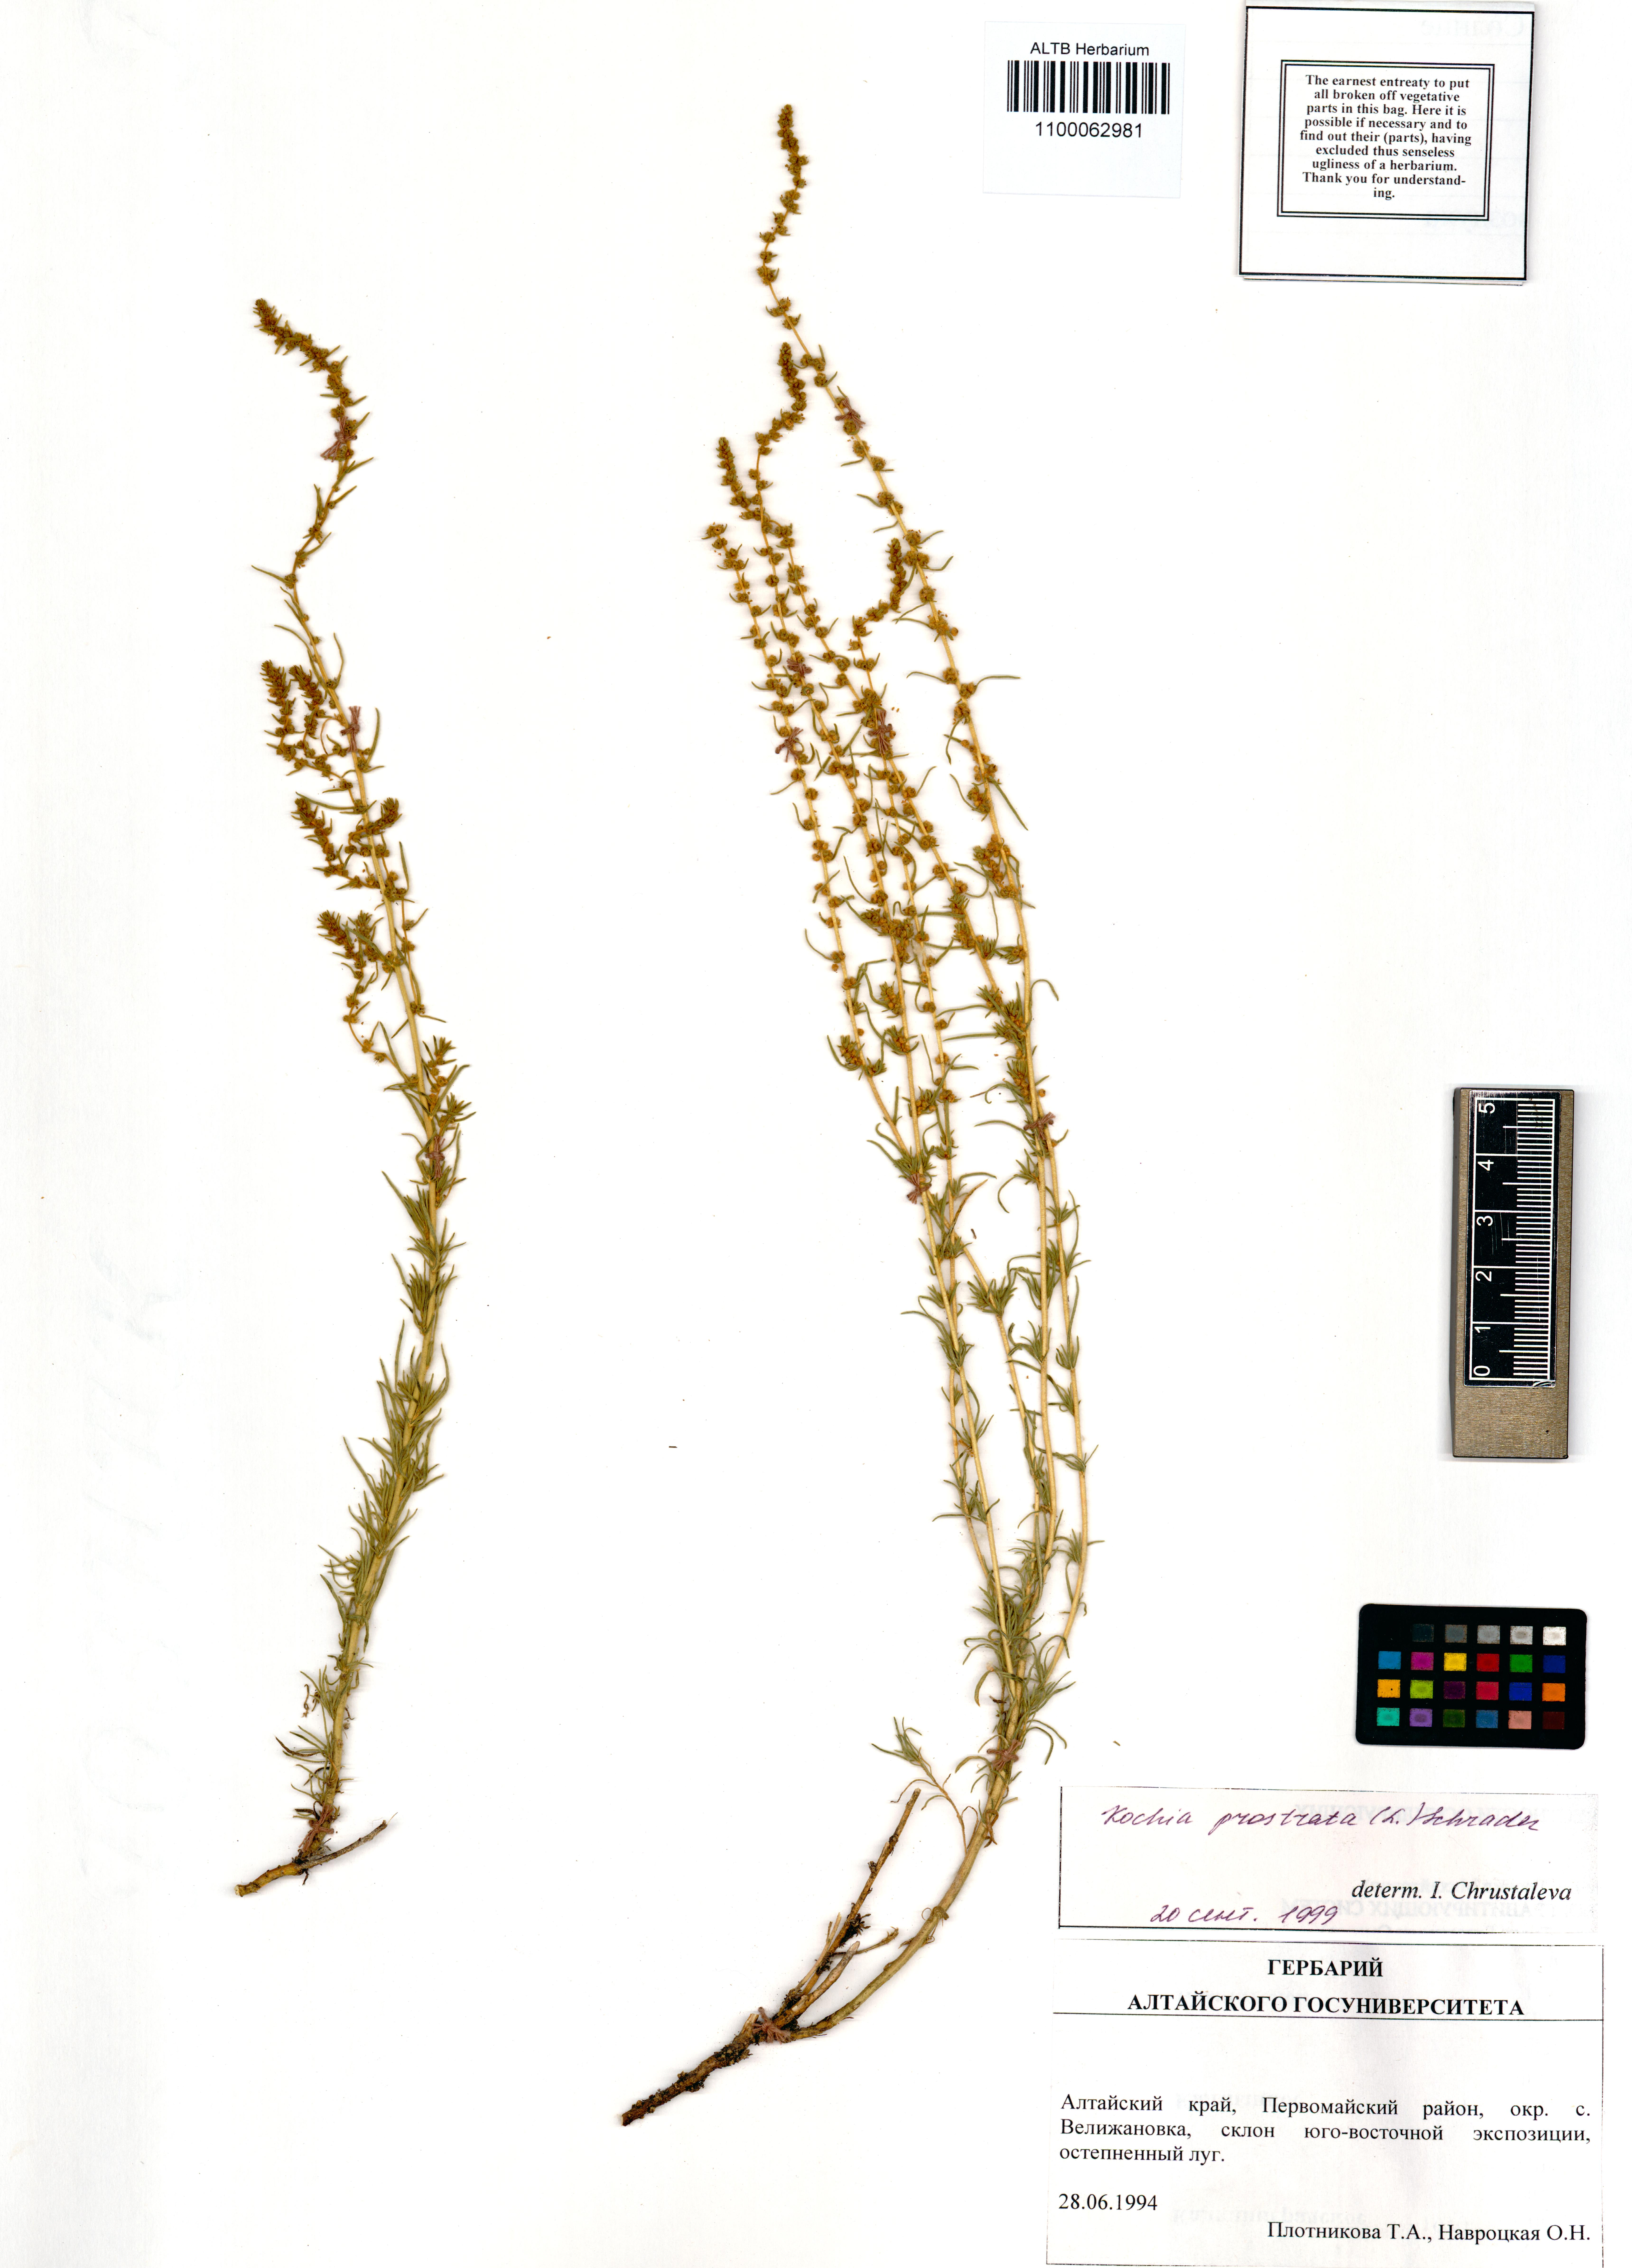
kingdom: Plantae
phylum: Tracheophyta
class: Magnoliopsida
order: Caryophyllales
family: Amaranthaceae
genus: Bassia
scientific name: Bassia prostrata
